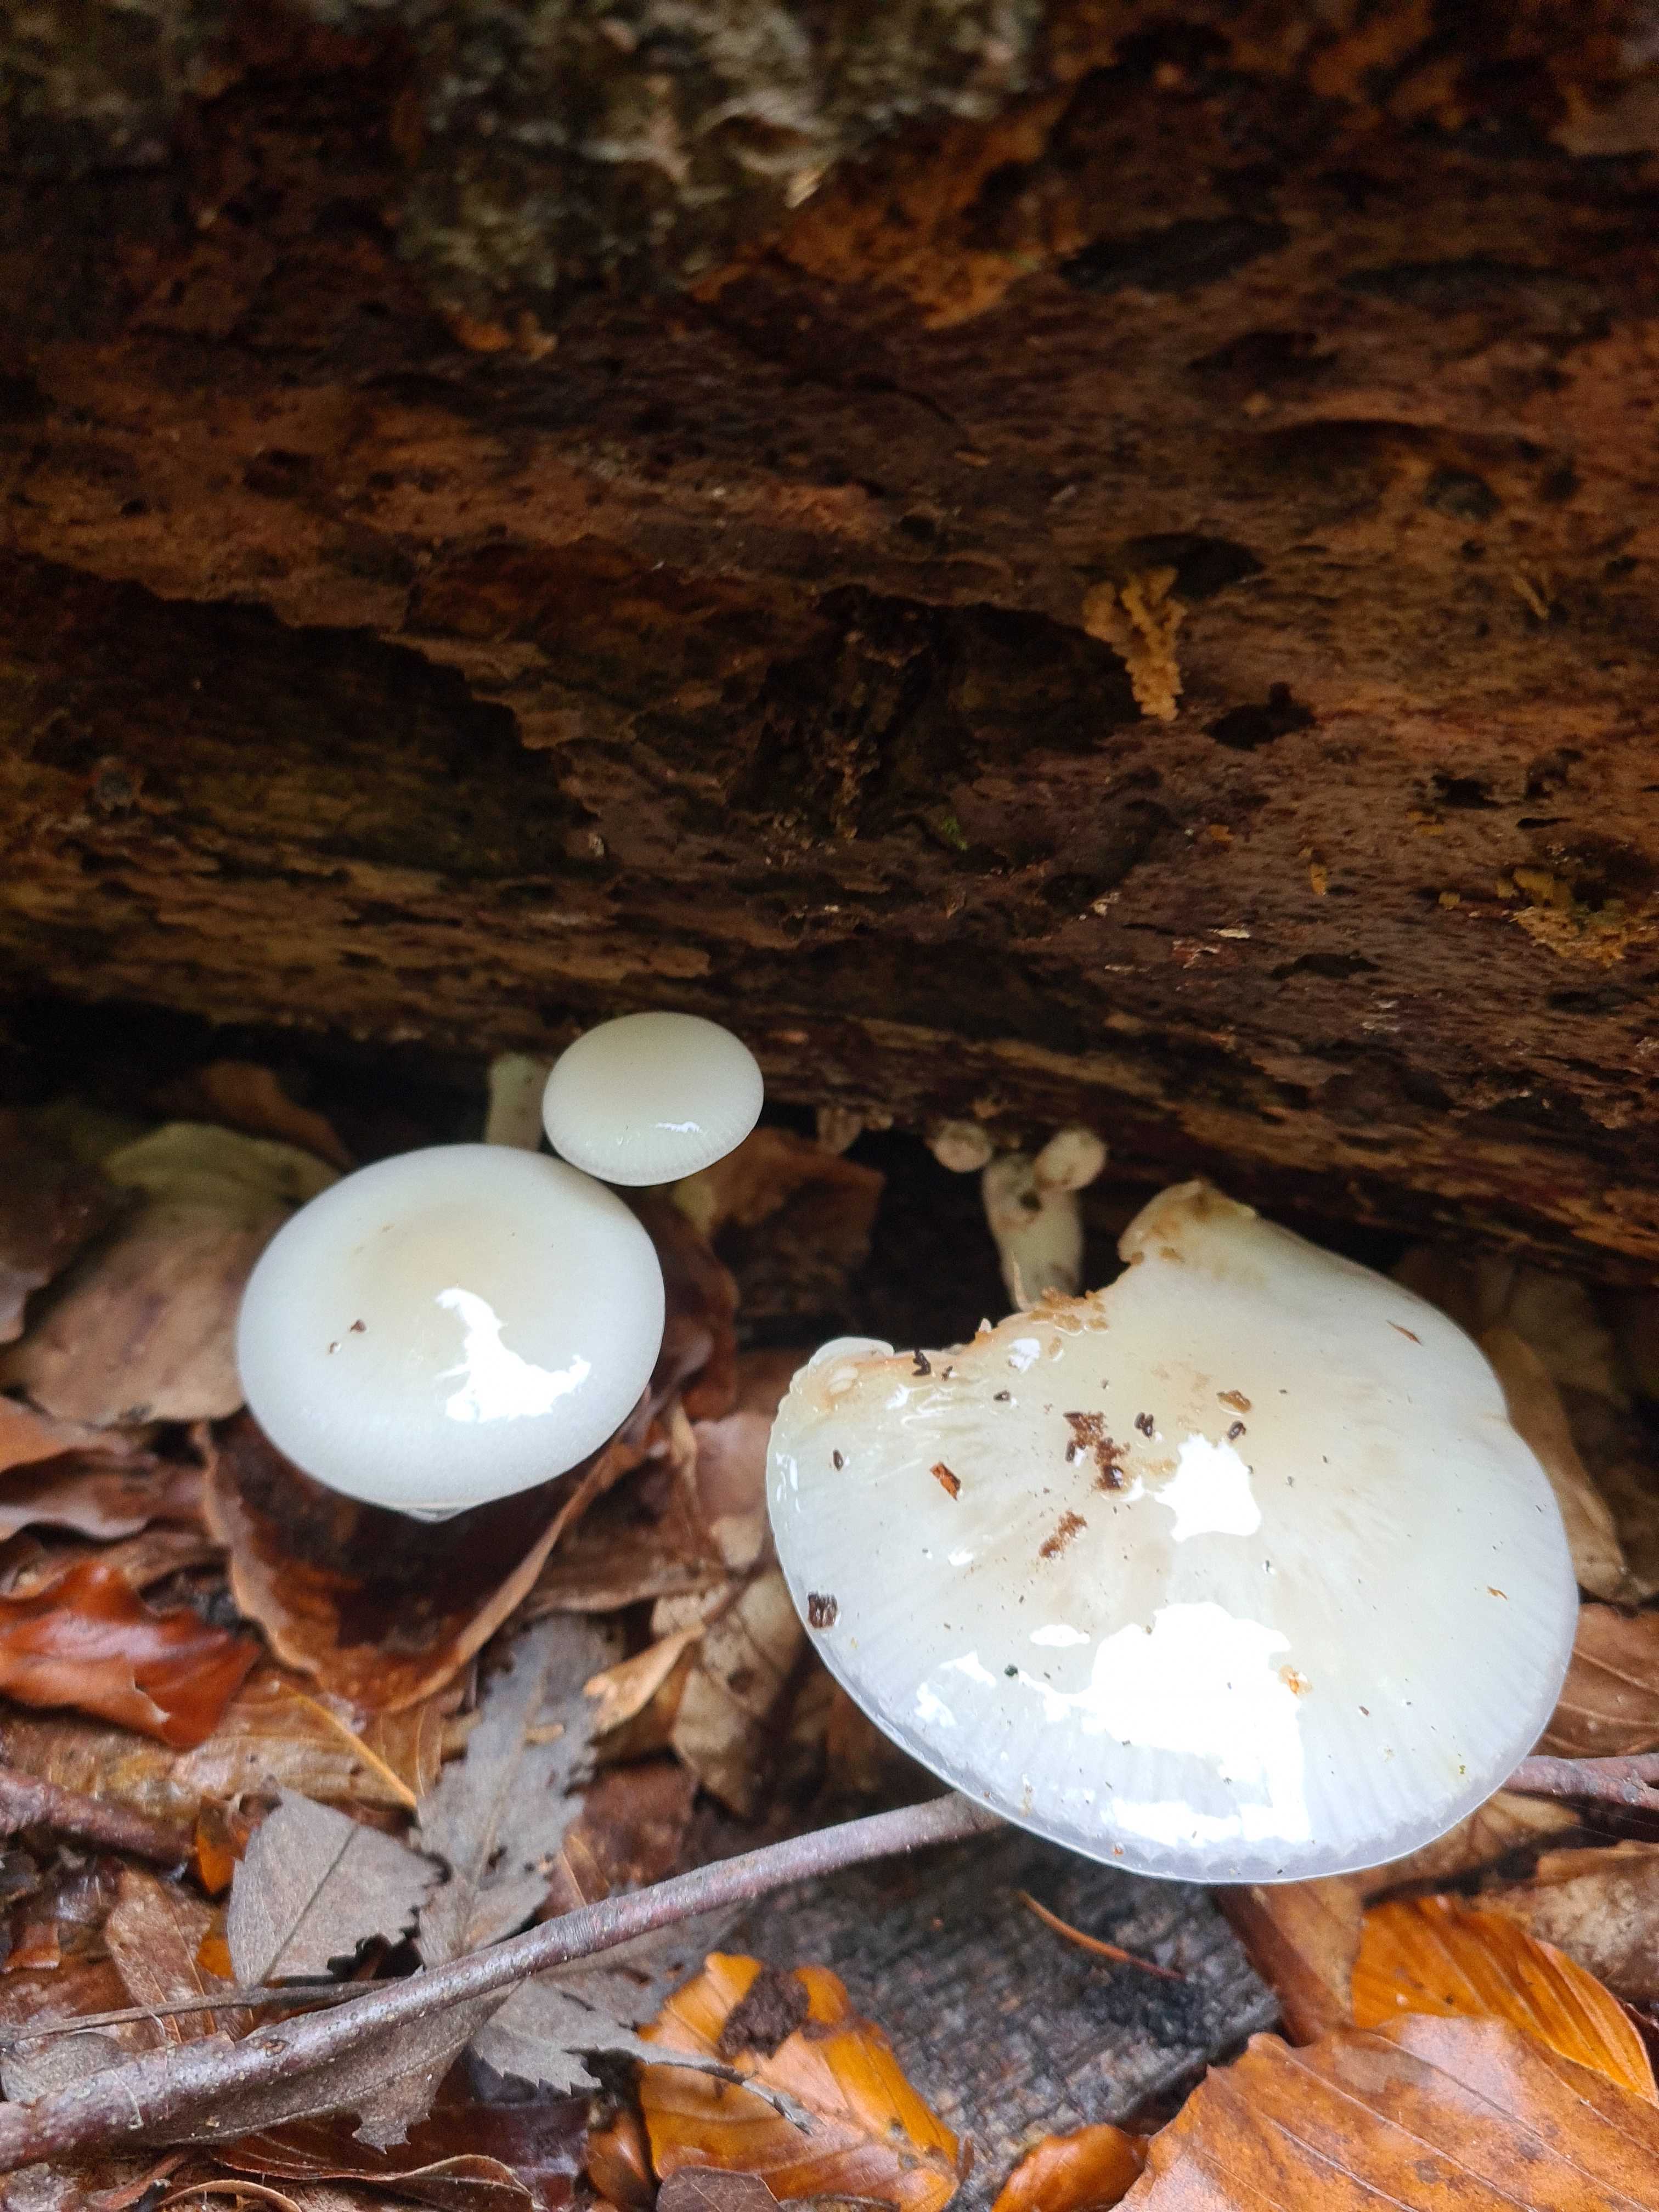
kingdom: Fungi
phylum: Basidiomycota
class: Agaricomycetes
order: Agaricales
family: Physalacriaceae
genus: Mucidula
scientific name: Mucidula mucida
